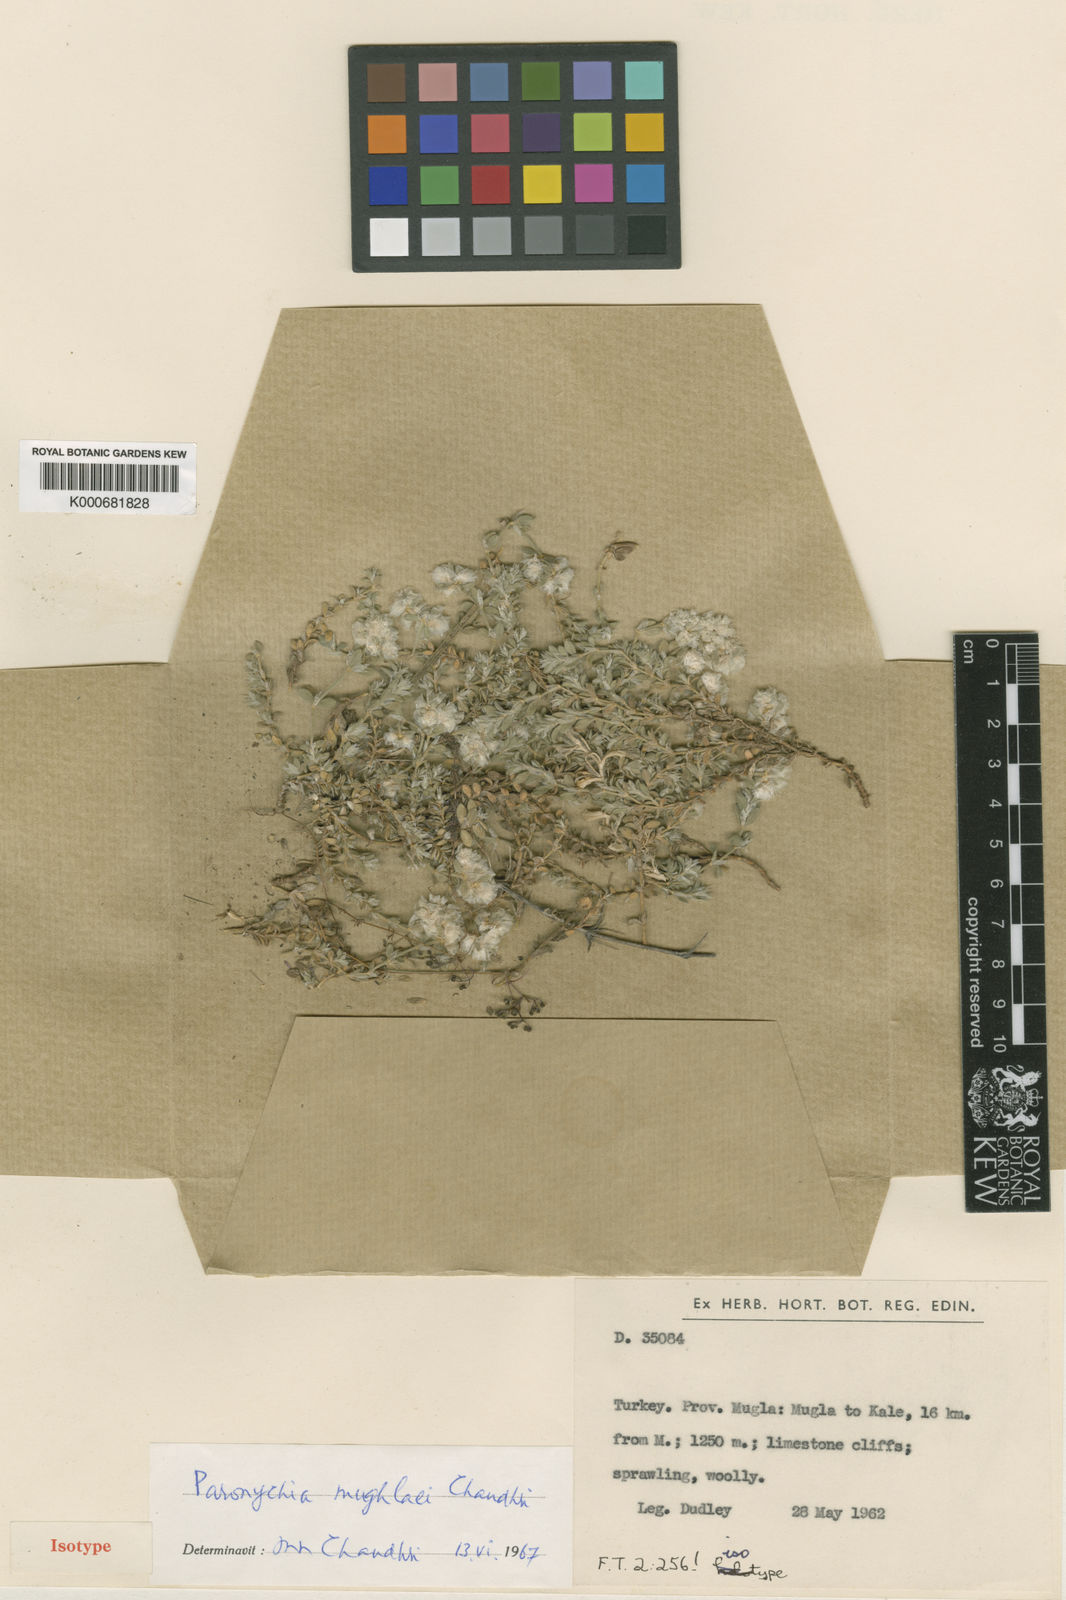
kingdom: Plantae
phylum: Tracheophyta
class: Magnoliopsida
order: Caryophyllales
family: Caryophyllaceae
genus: Paronychia
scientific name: Paronychia mughlaei
